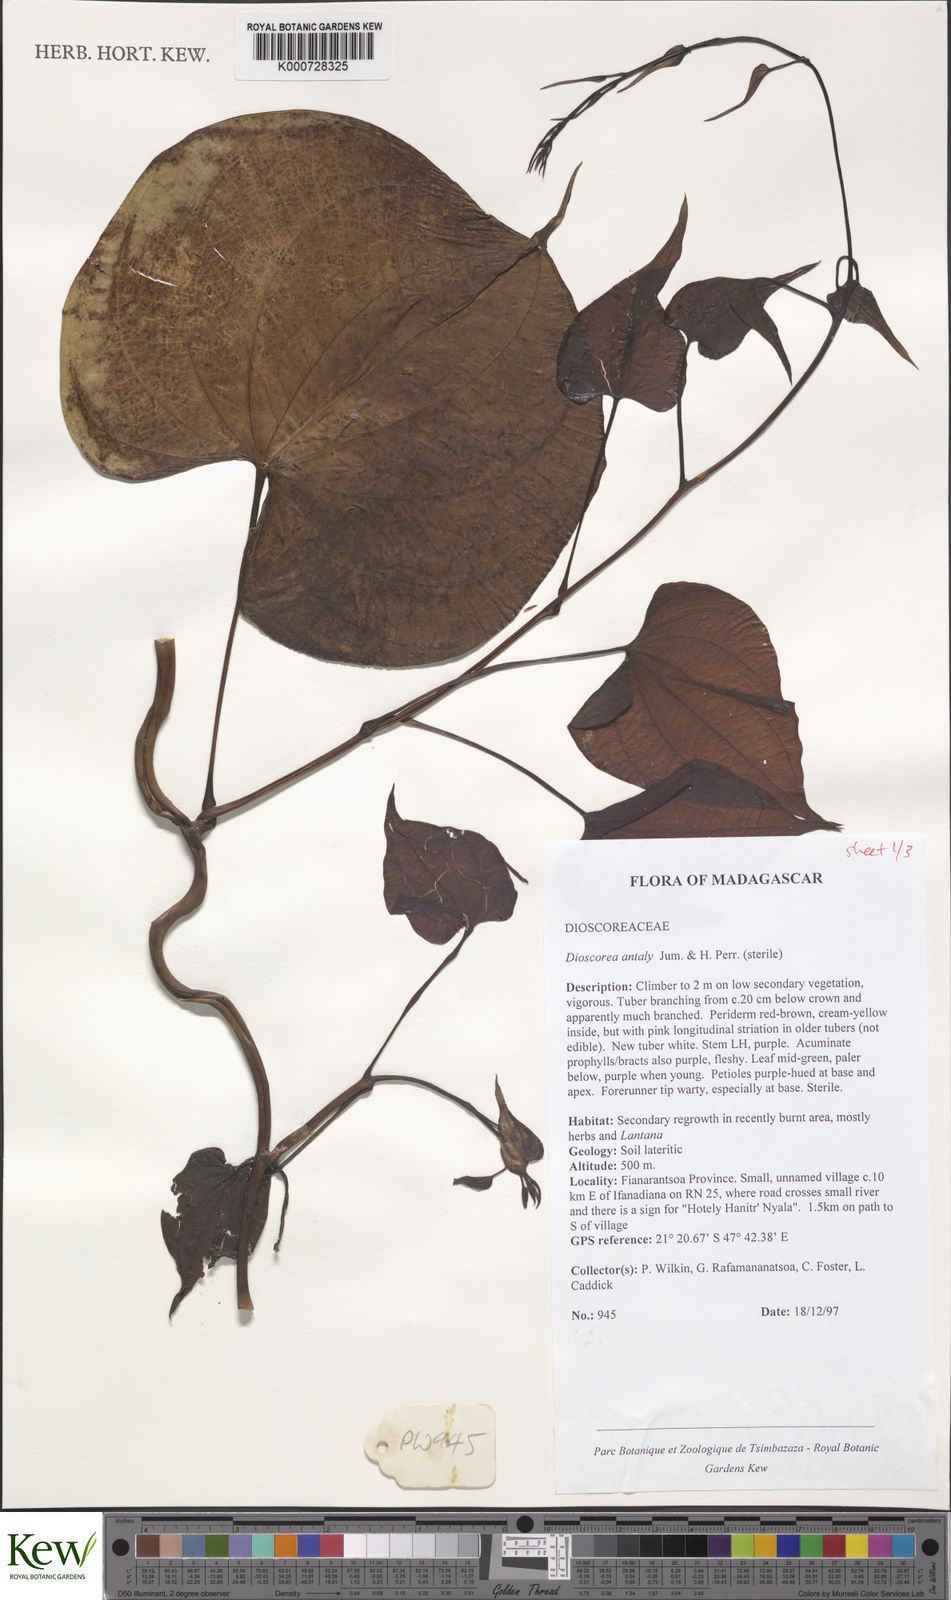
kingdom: Plantae
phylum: Tracheophyta
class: Liliopsida
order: Dioscoreales
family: Dioscoreaceae
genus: Dioscorea
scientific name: Dioscorea antaly
